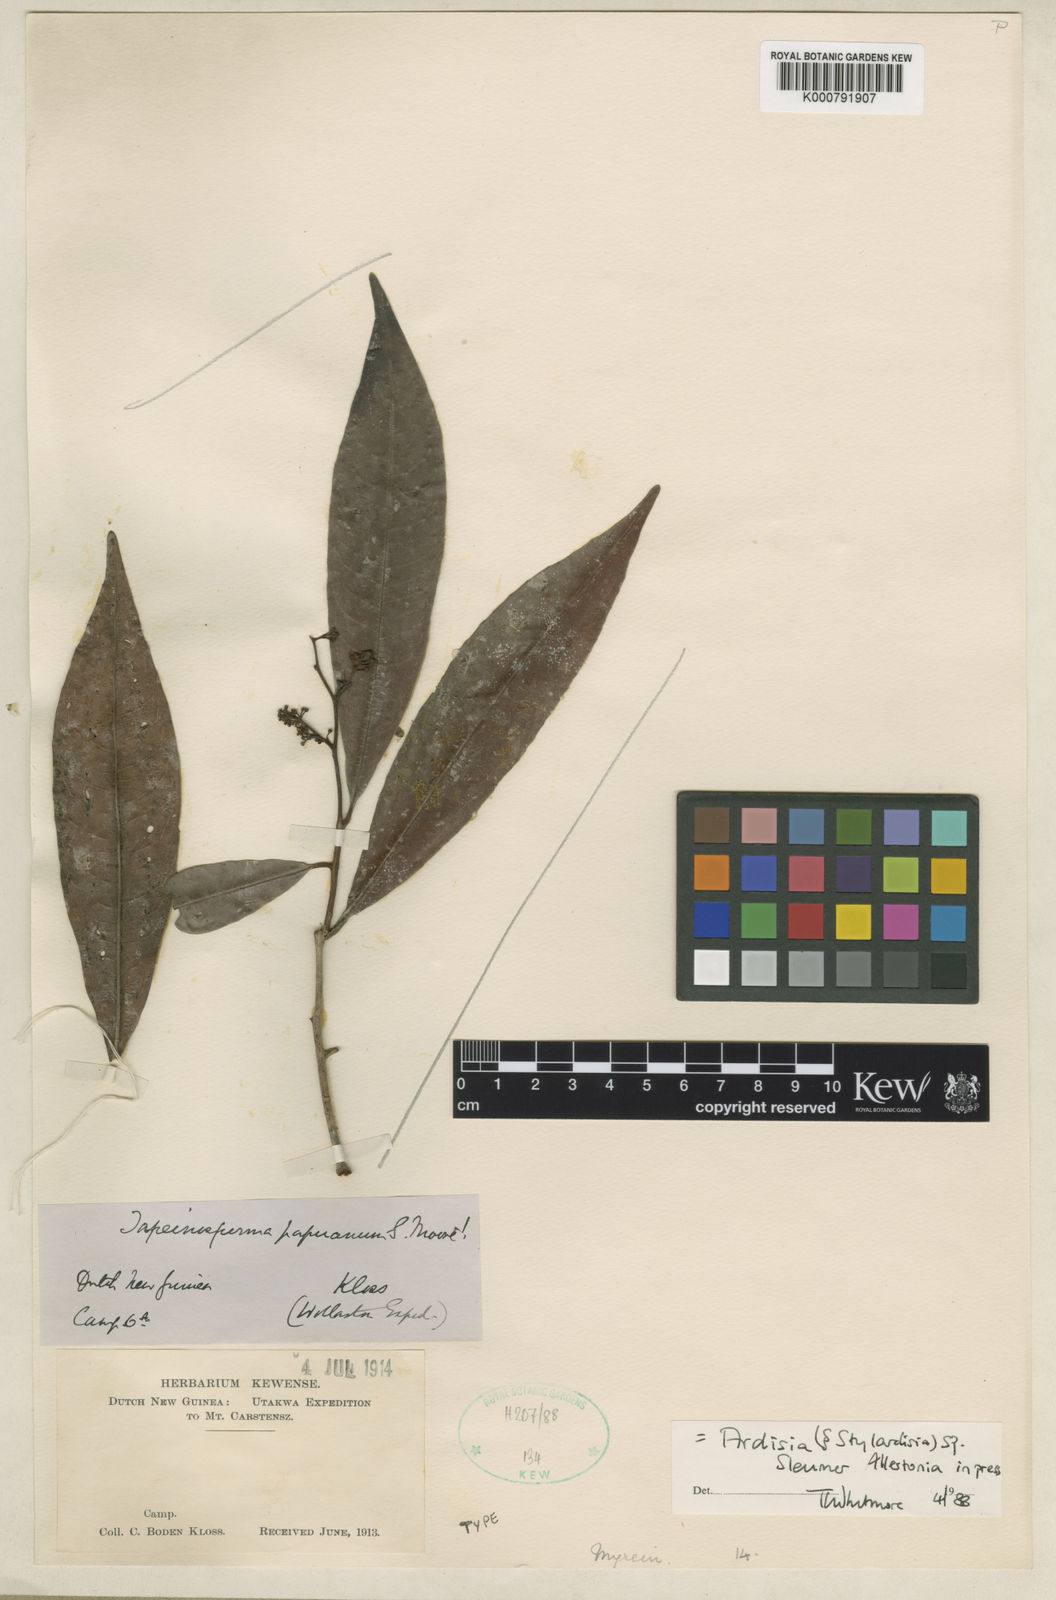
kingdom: Plantae
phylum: Tracheophyta
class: Magnoliopsida
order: Ericales
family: Primulaceae
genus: Ardisia
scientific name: Ardisia
